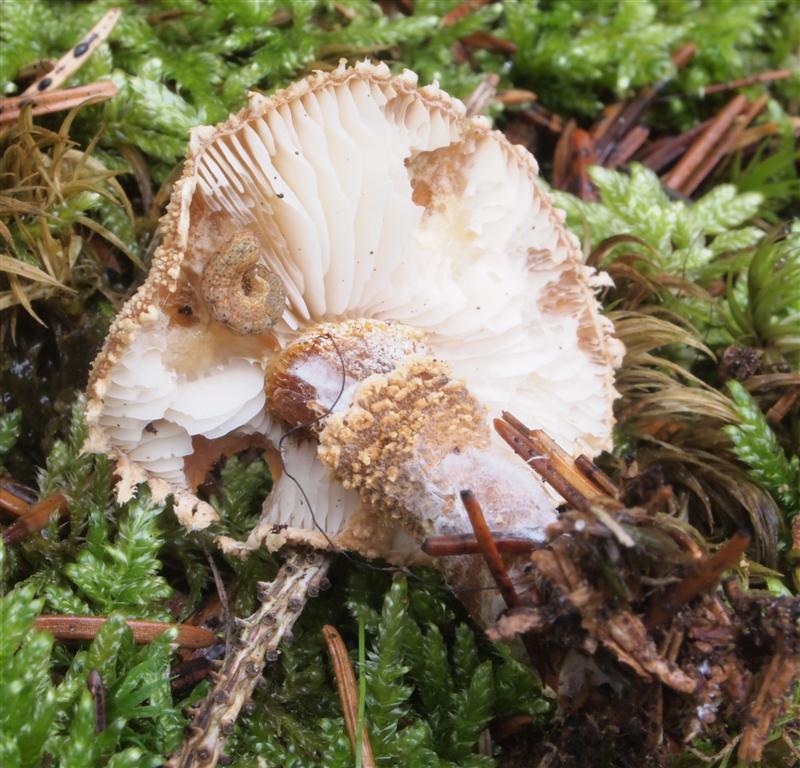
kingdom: Fungi
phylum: Basidiomycota
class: Agaricomycetes
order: Agaricales
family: Tricholomataceae
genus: Cystoderma
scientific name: Cystoderma amianthinum
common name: okkergul grynhat
